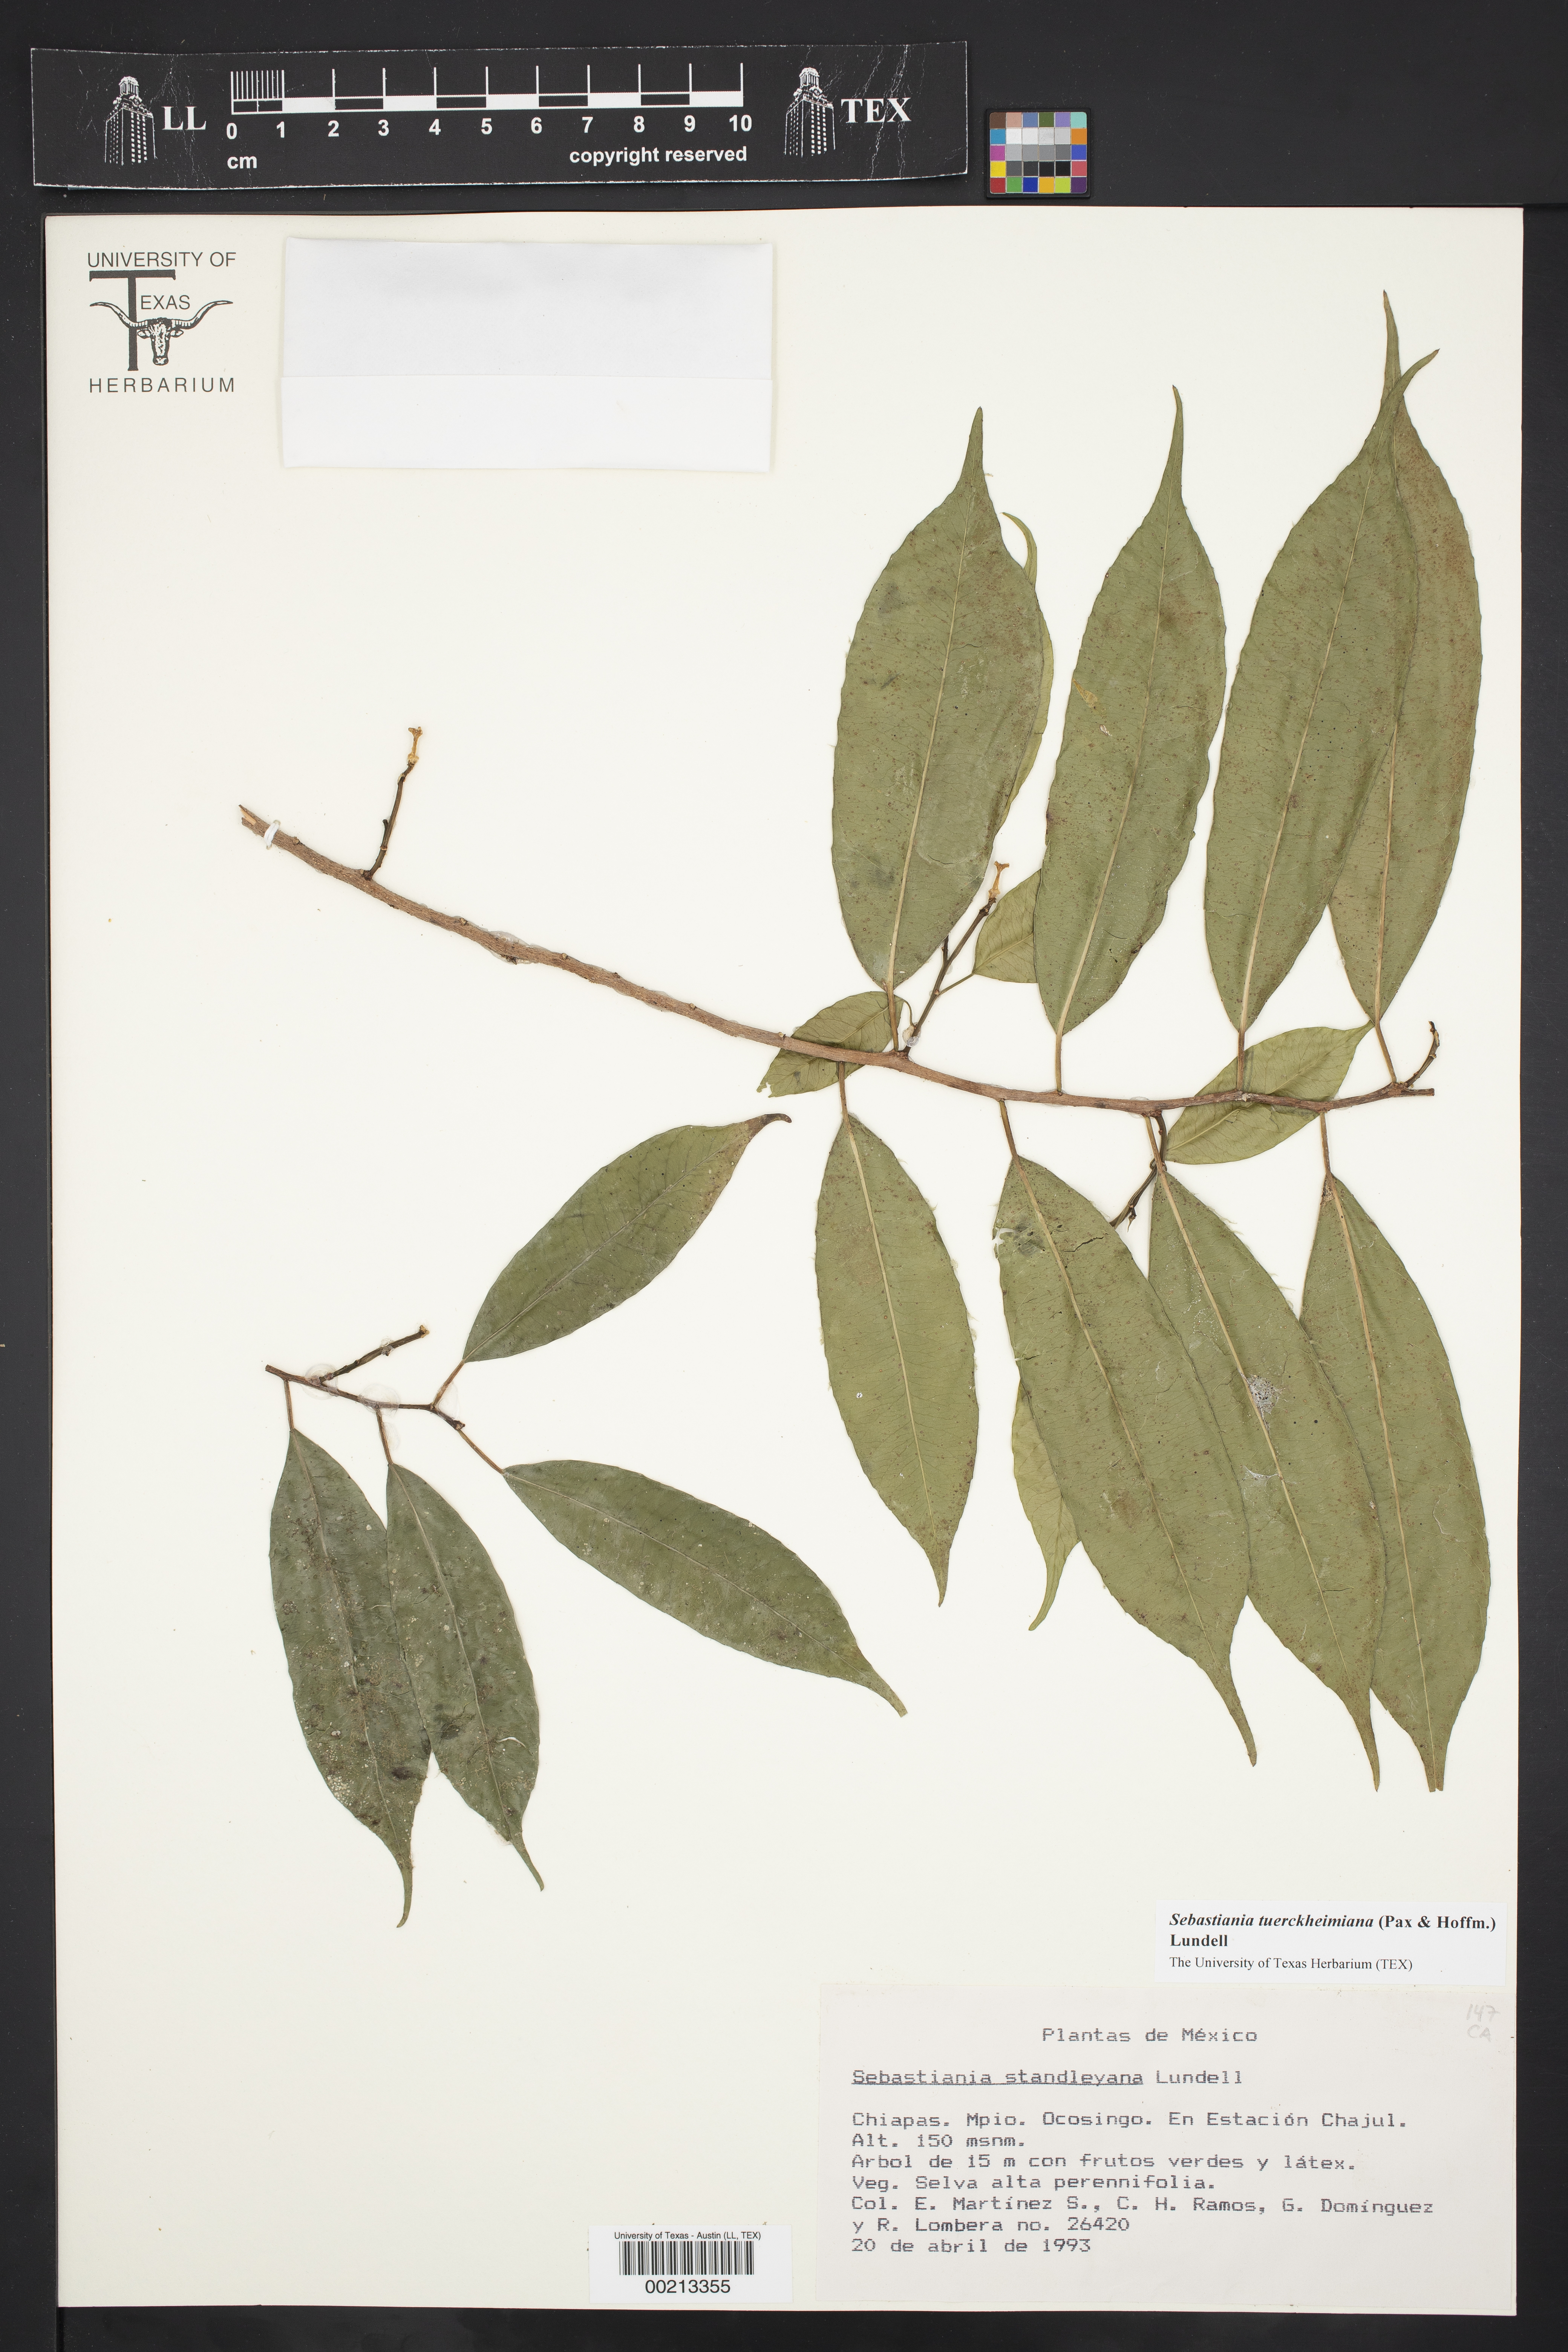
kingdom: Plantae
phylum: Tracheophyta
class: Magnoliopsida
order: Malpighiales
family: Euphorbiaceae
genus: Pleradenophora
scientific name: Pleradenophora tuerckheimiana
